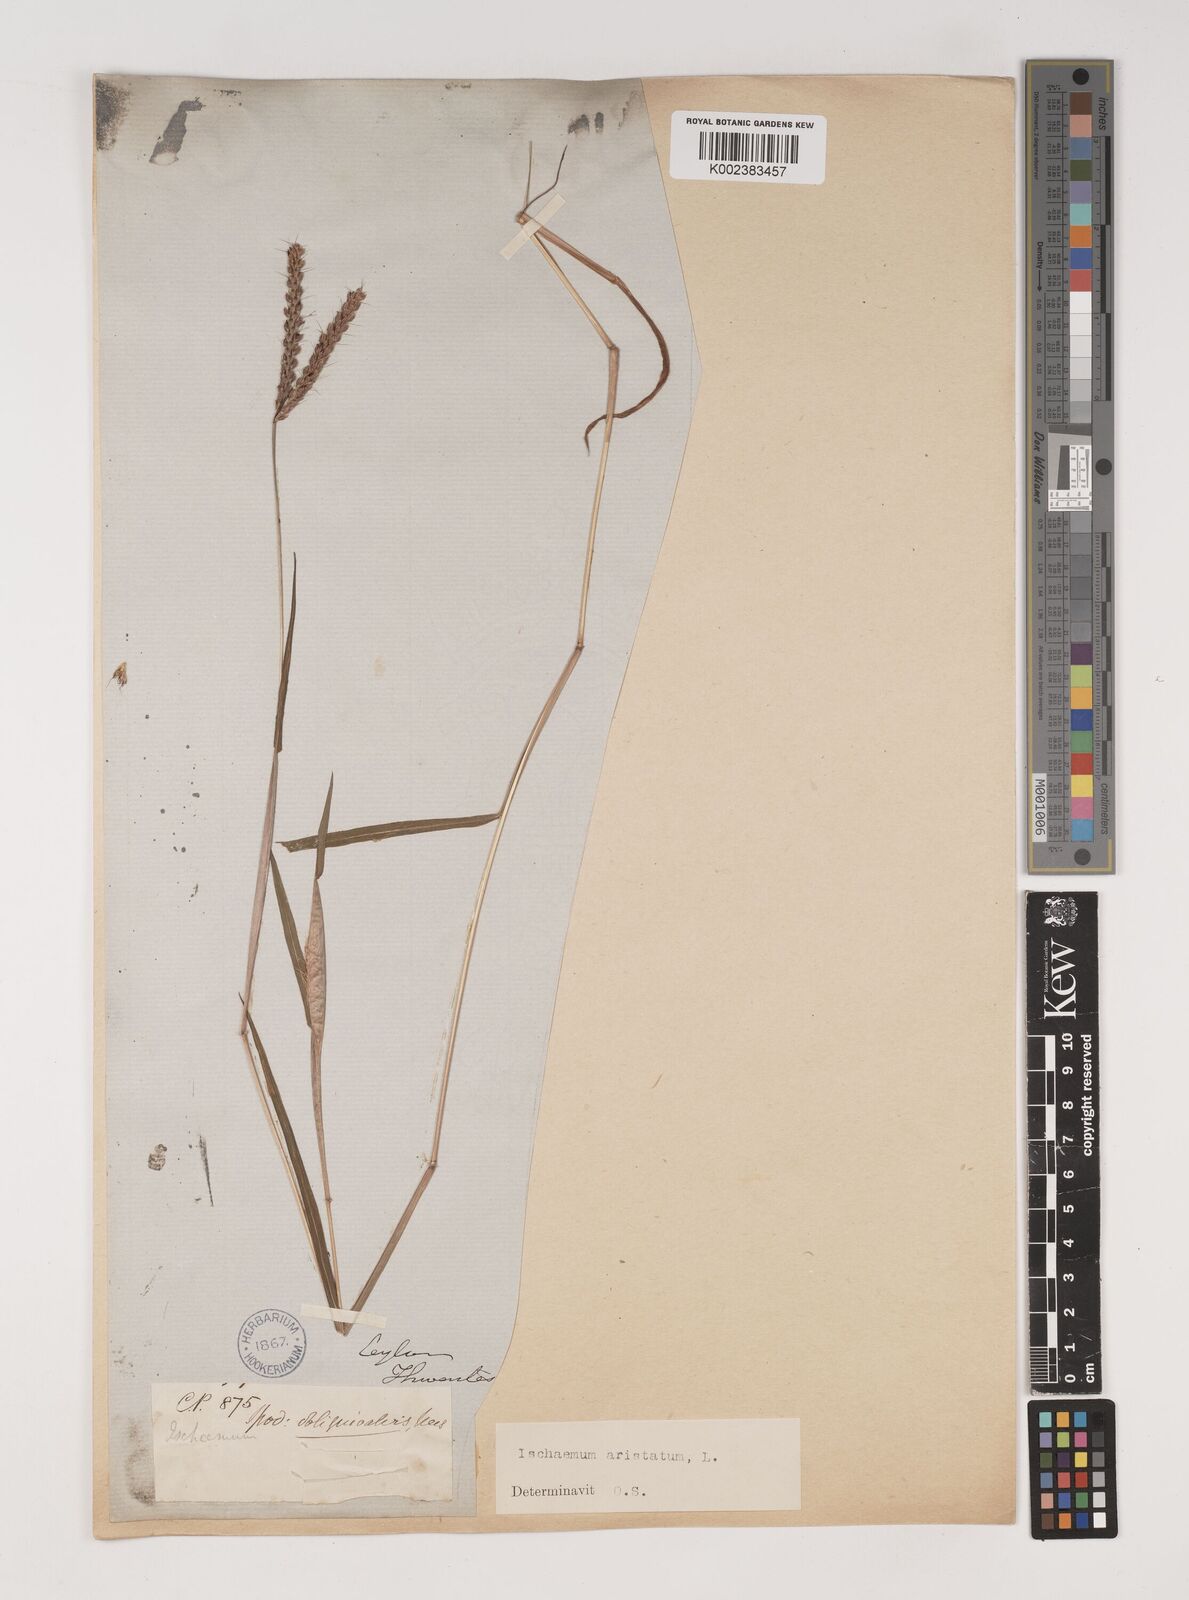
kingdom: Plantae
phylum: Tracheophyta
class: Liliopsida
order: Poales
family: Poaceae
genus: Polytrias
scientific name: Polytrias indica
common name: Indian murainagrass
